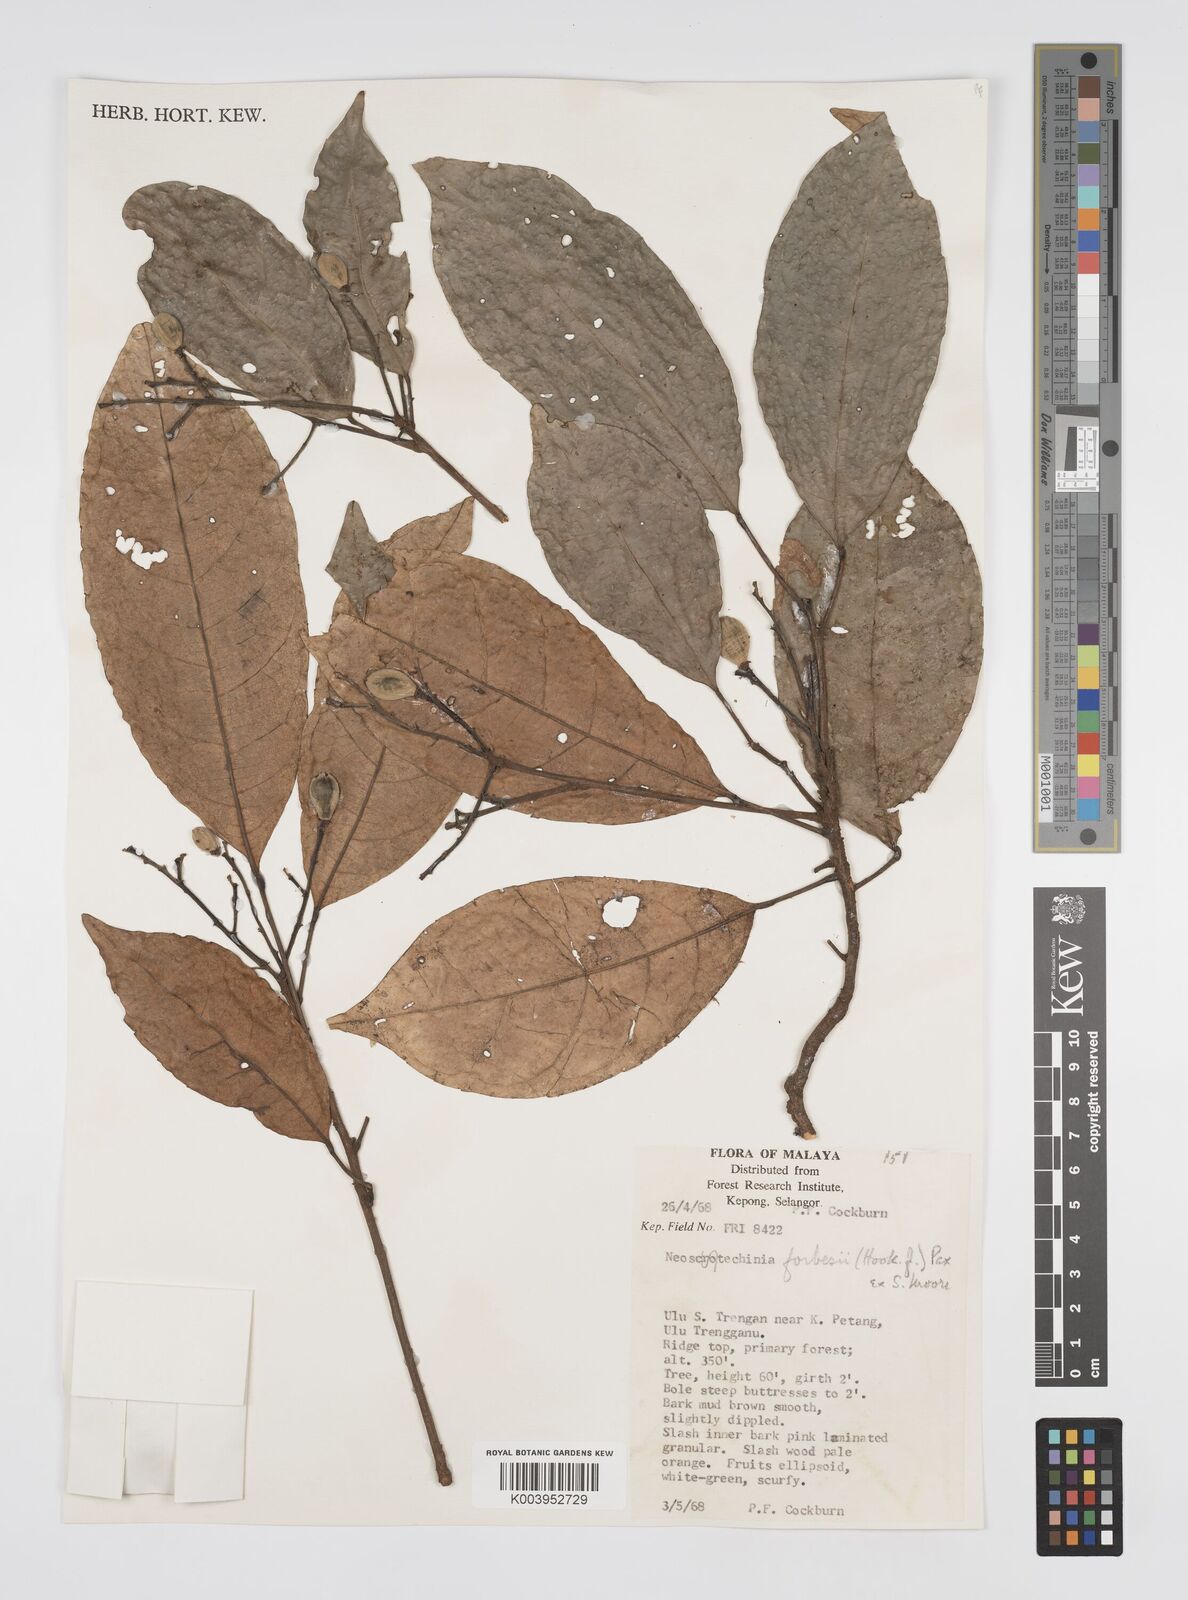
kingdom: Plantae
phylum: Tracheophyta
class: Magnoliopsida
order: Malpighiales
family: Euphorbiaceae
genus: Neoscortechinia
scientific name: Neoscortechinia philippinensis
